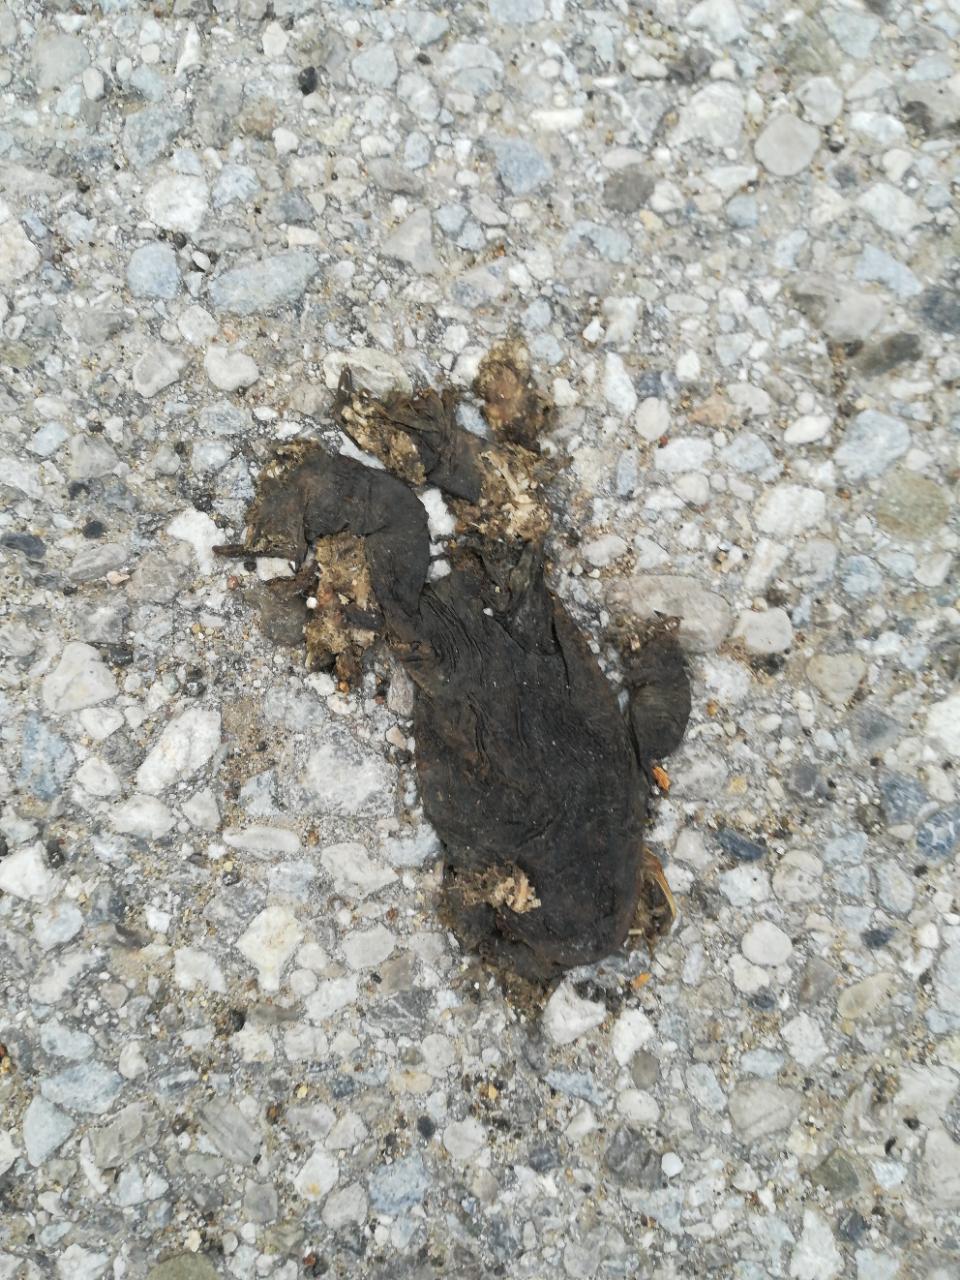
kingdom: Animalia
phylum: Chordata
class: Amphibia
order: Anura
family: Bufonidae
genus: Bufo
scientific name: Bufo bufo
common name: Common toad
